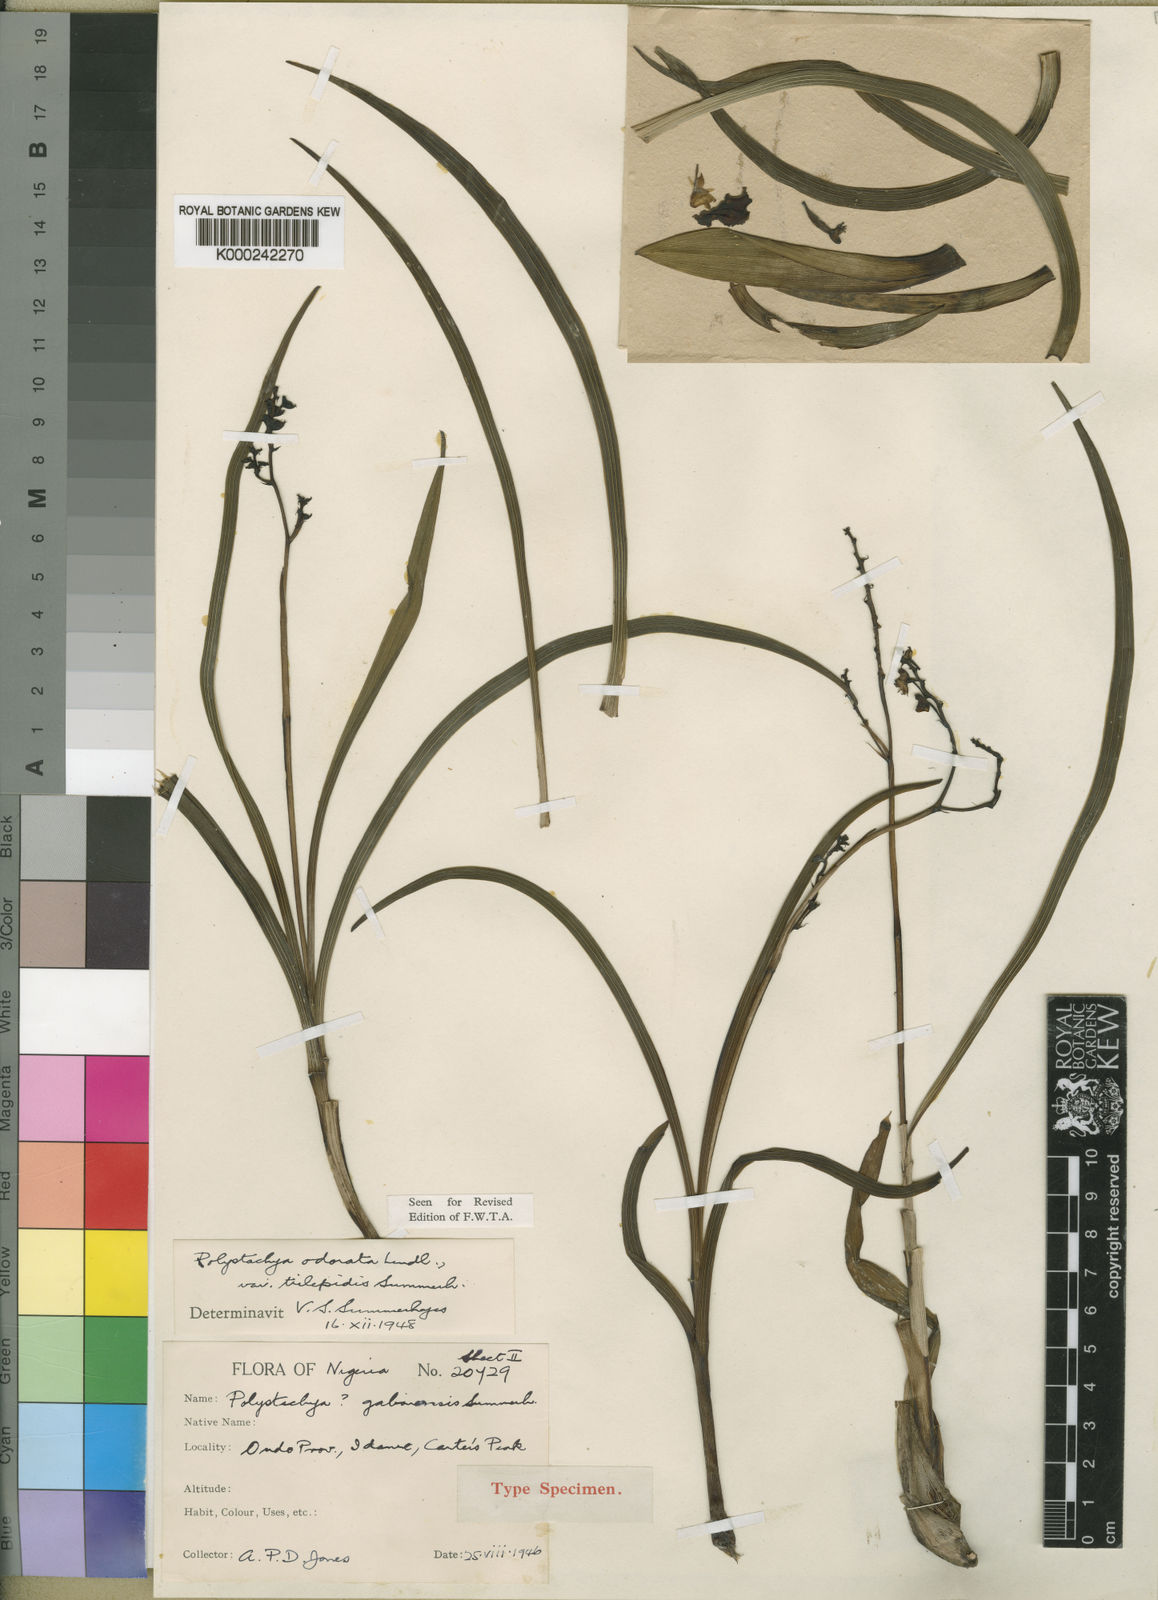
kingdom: Plantae
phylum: Tracheophyta
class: Liliopsida
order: Asparagales
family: Orchidaceae
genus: Polystachya
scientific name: Polystachya odorata
